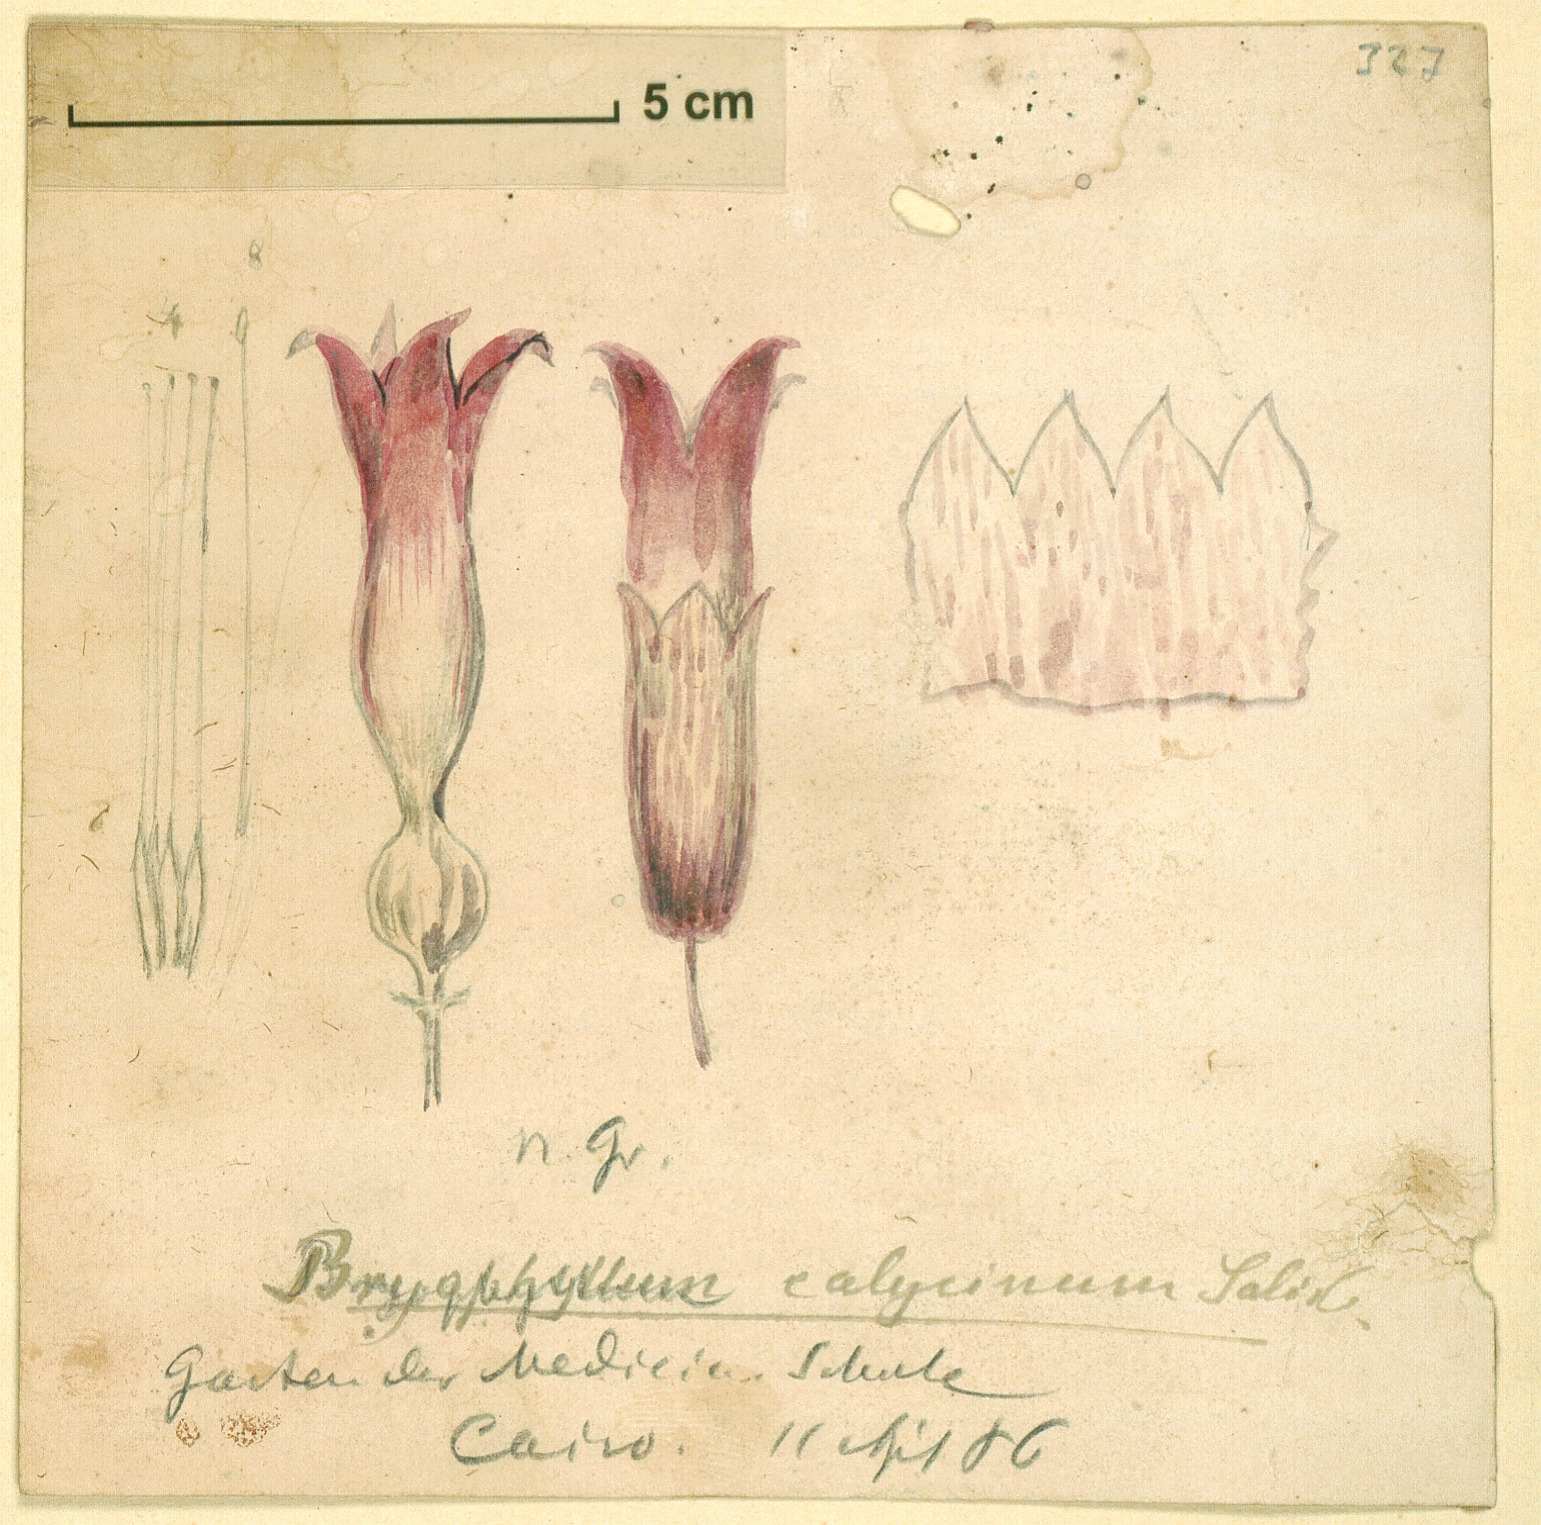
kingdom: Plantae
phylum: Tracheophyta
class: Magnoliopsida
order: Saxifragales
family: Crassulaceae
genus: Kalanchoe
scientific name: Kalanchoe pinnata
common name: Cathedral bells
